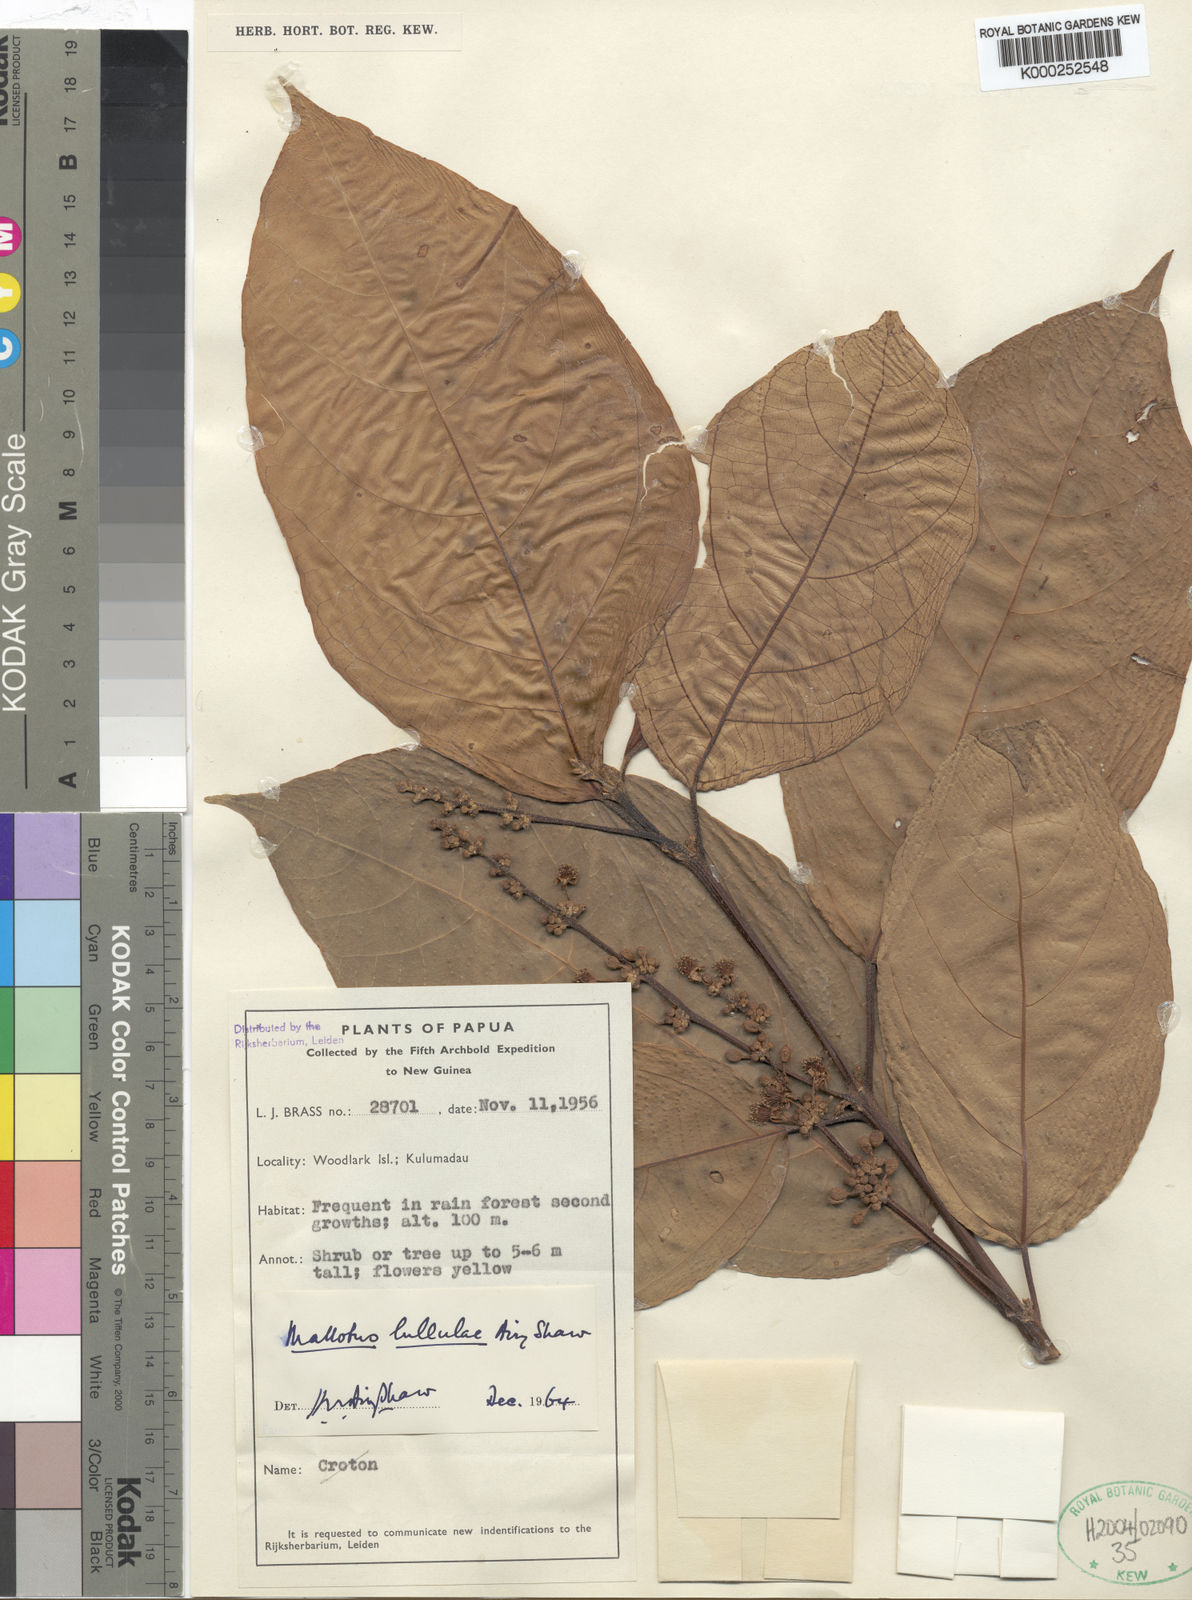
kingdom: Plantae
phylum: Tracheophyta
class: Magnoliopsida
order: Malpighiales
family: Euphorbiaceae
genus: Mallotus
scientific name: Mallotus lauterbachianus
